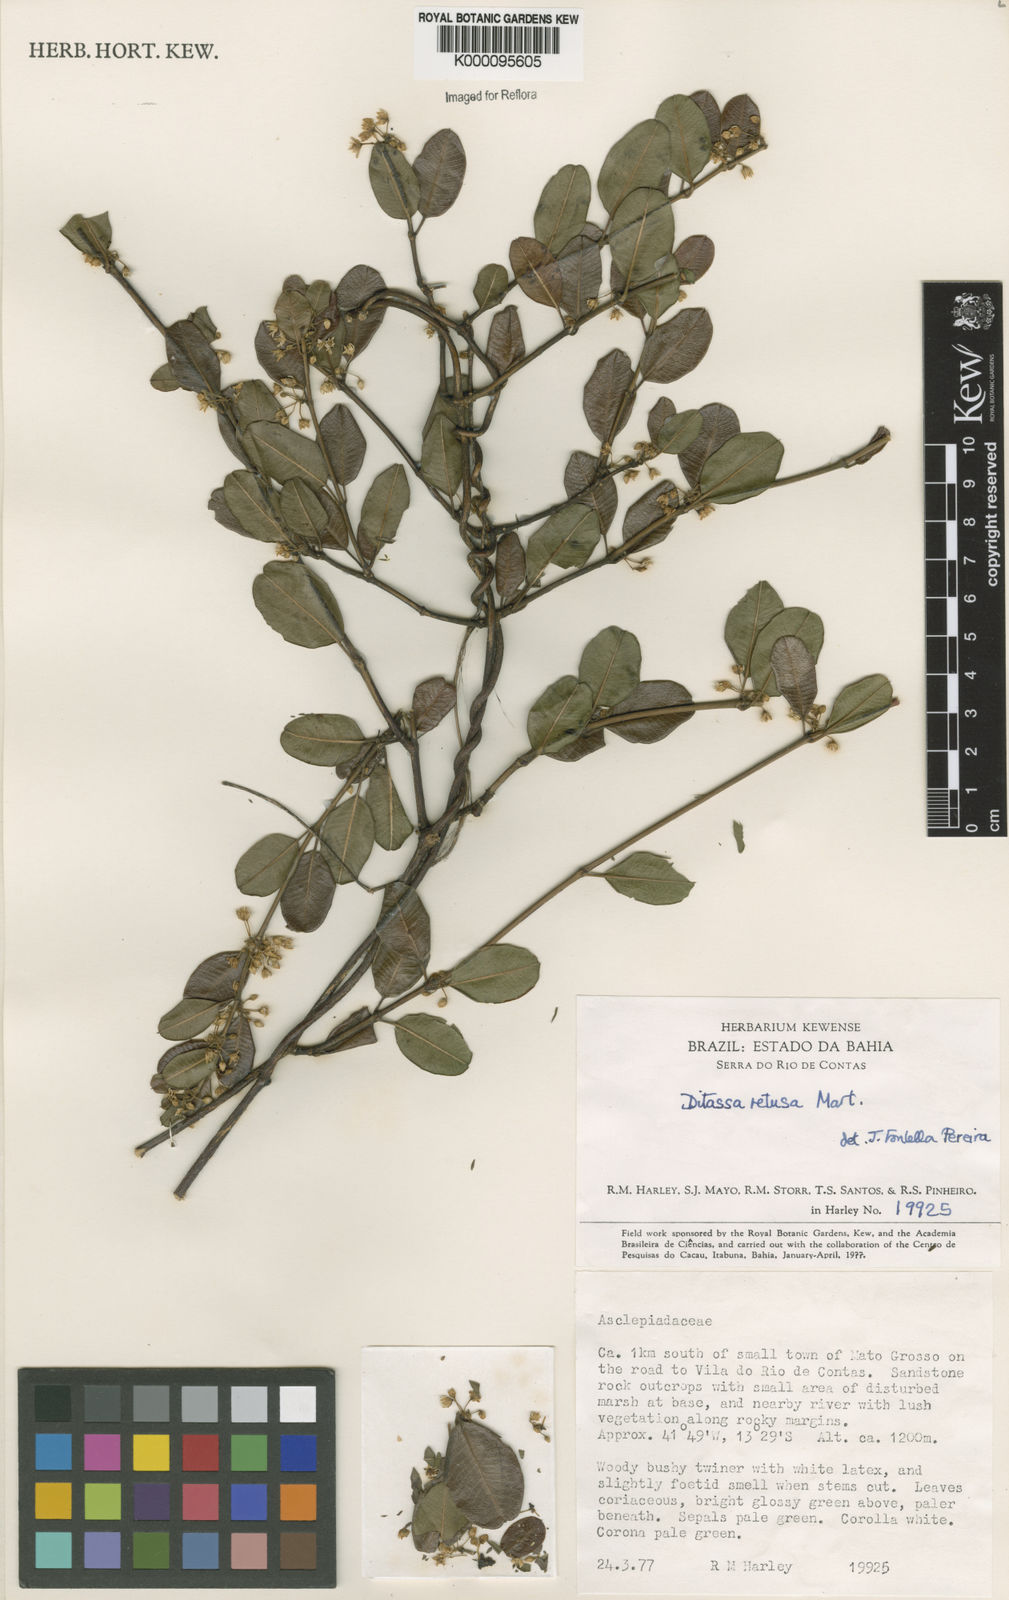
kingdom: Plantae
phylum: Tracheophyta
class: Magnoliopsida
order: Gentianales
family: Apocynaceae
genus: Ditassa
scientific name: Ditassa retusa
